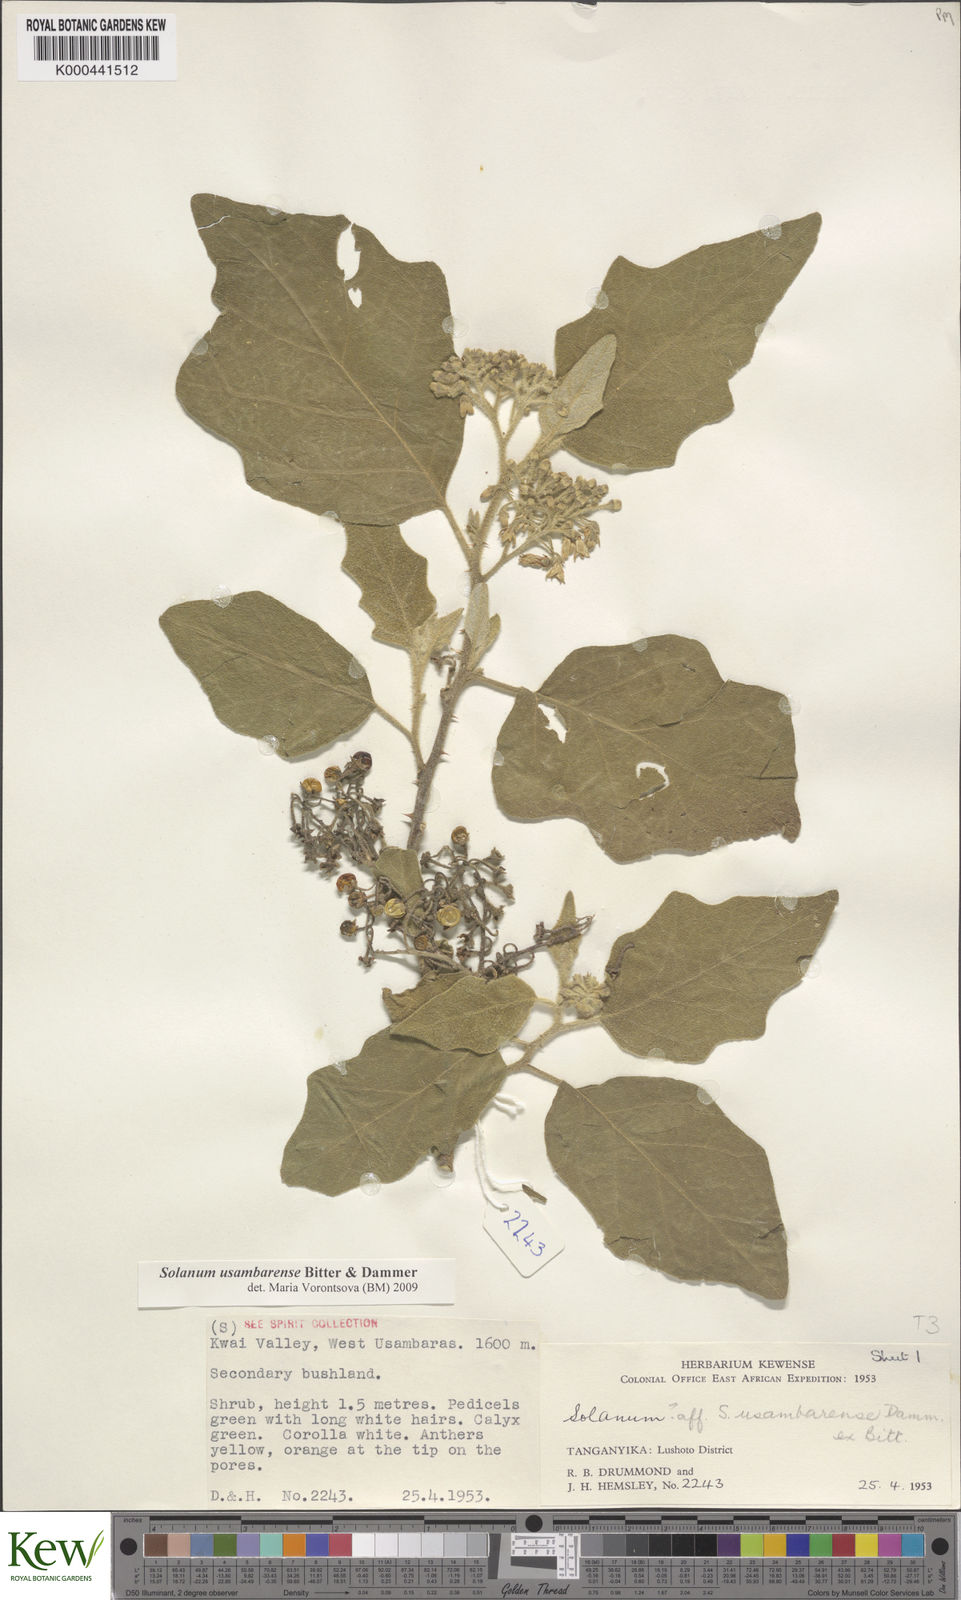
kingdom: Plantae
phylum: Tracheophyta
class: Magnoliopsida
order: Solanales
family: Solanaceae
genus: Solanum
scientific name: Solanum usambarense
